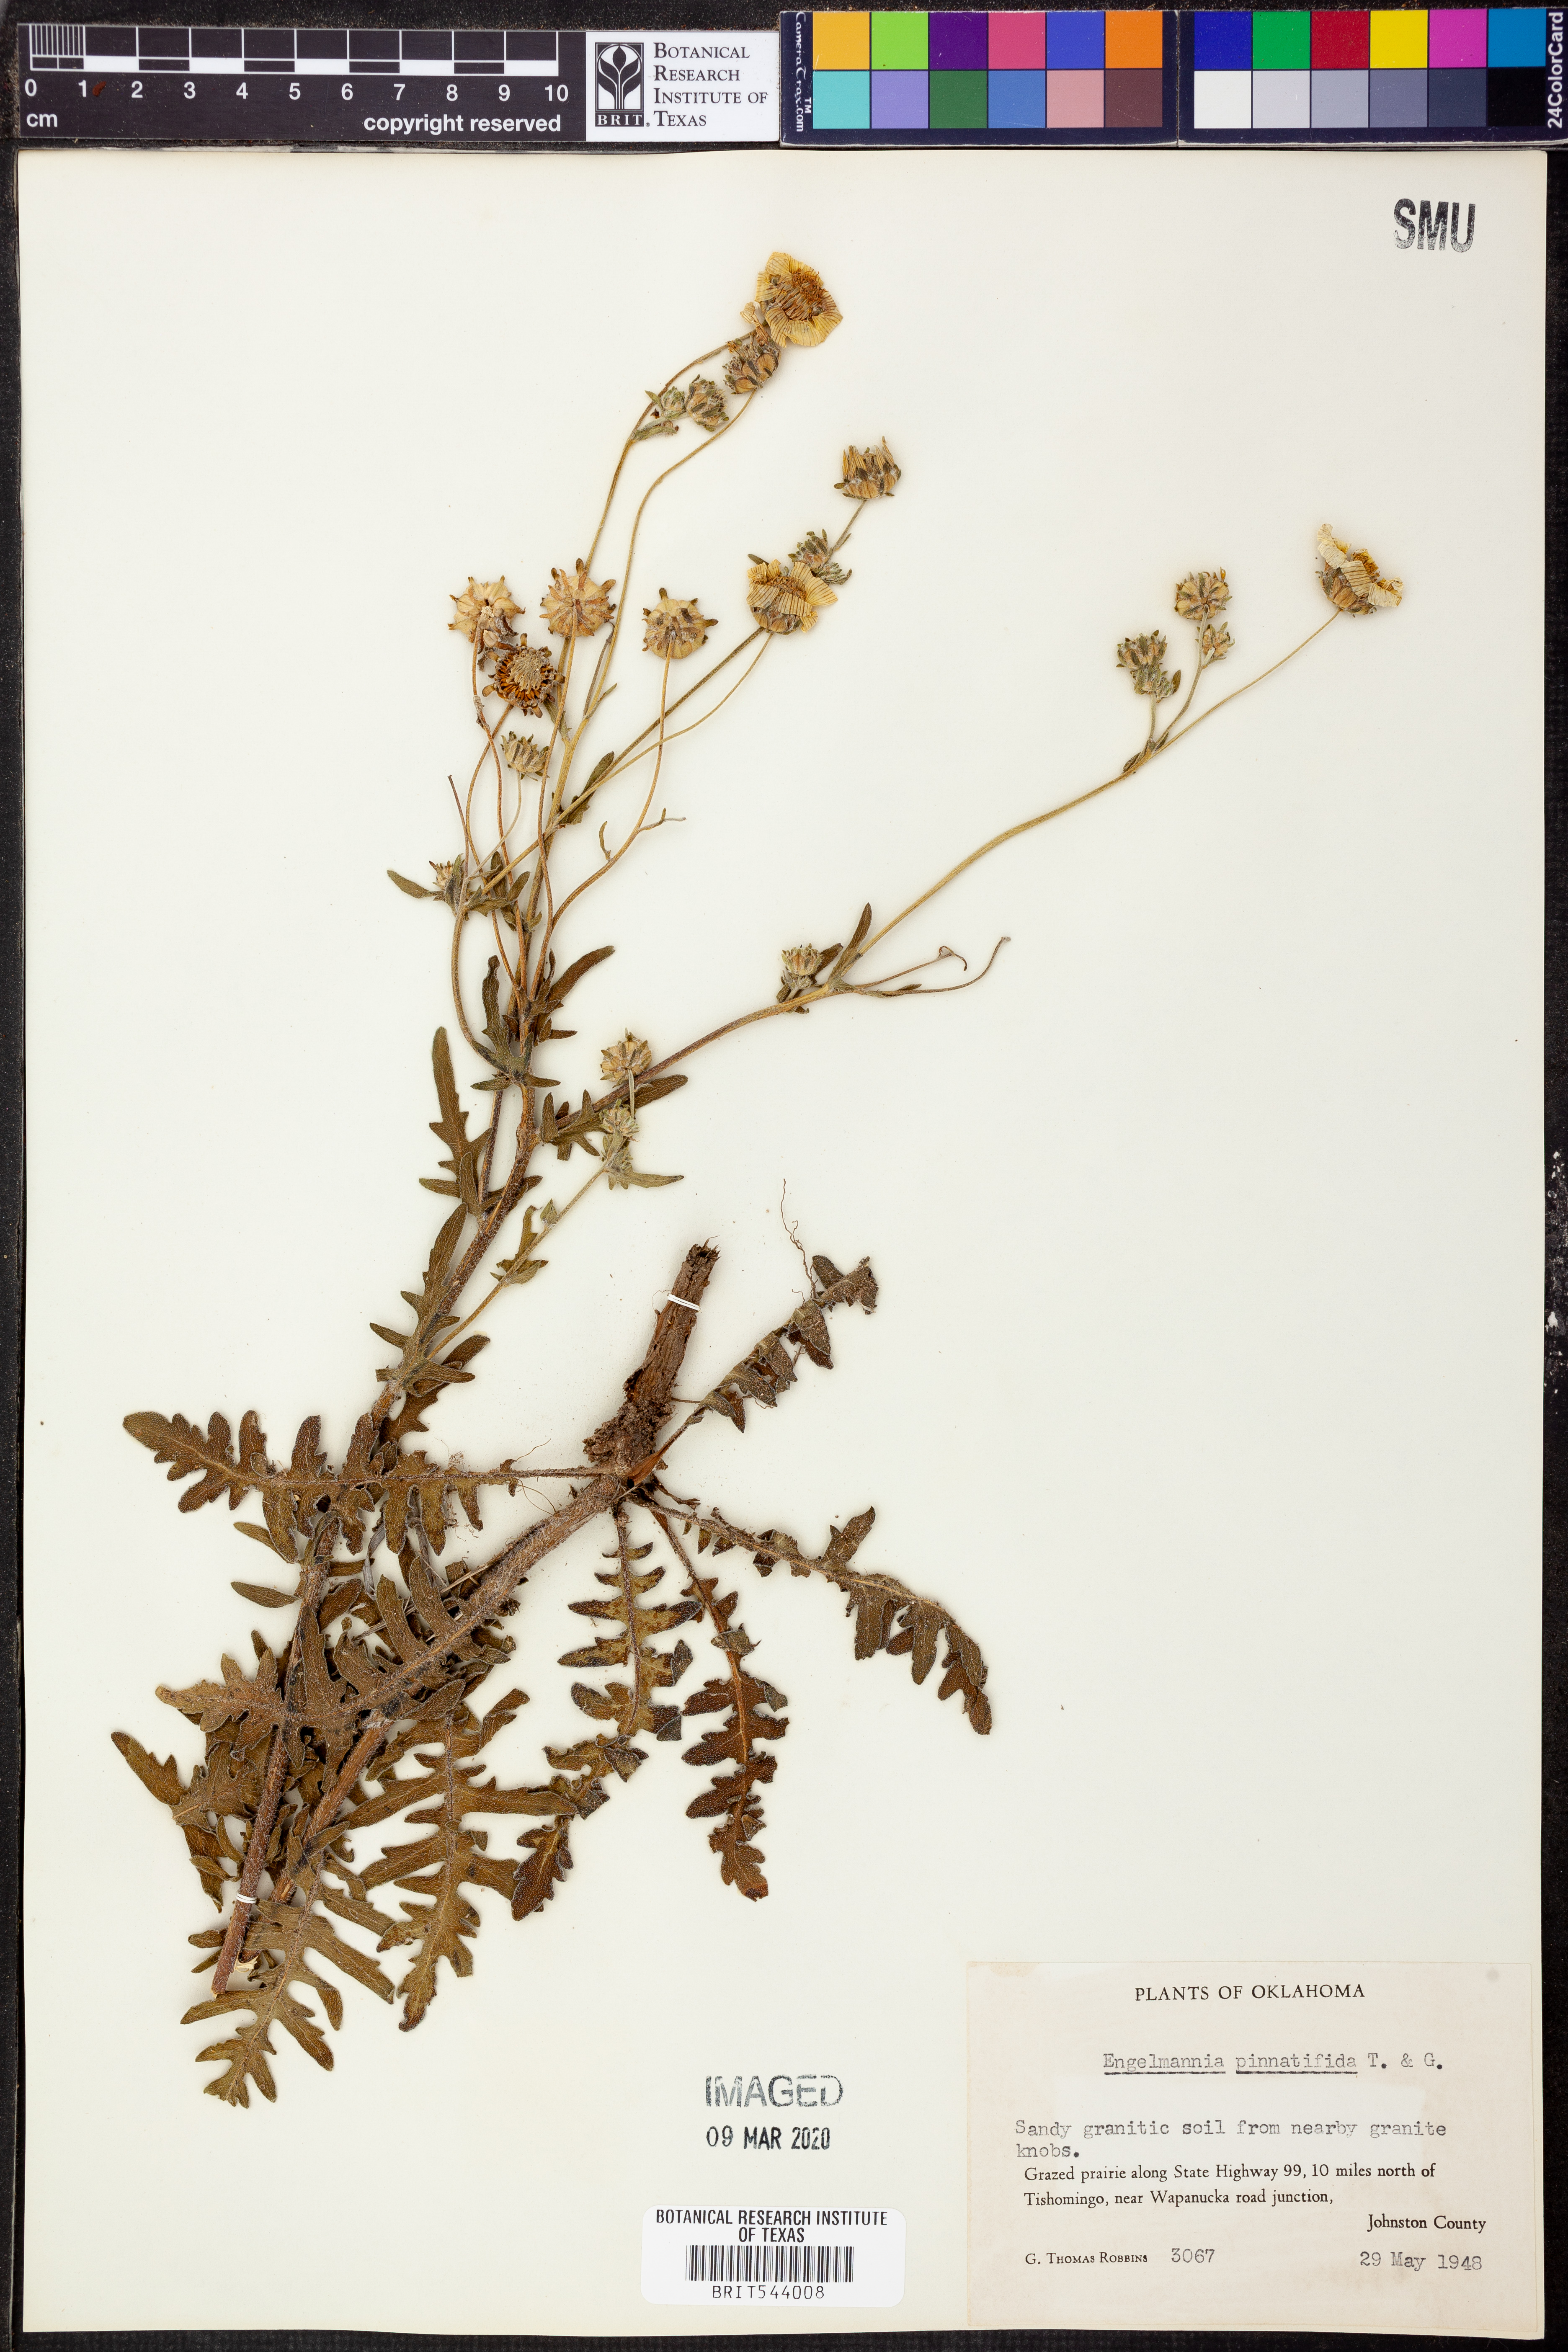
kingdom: Plantae
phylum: Tracheophyta
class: Magnoliopsida
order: Asterales
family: Asteraceae
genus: Engelmannia
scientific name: Engelmannia peristenia
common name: Engelmann's daisy
